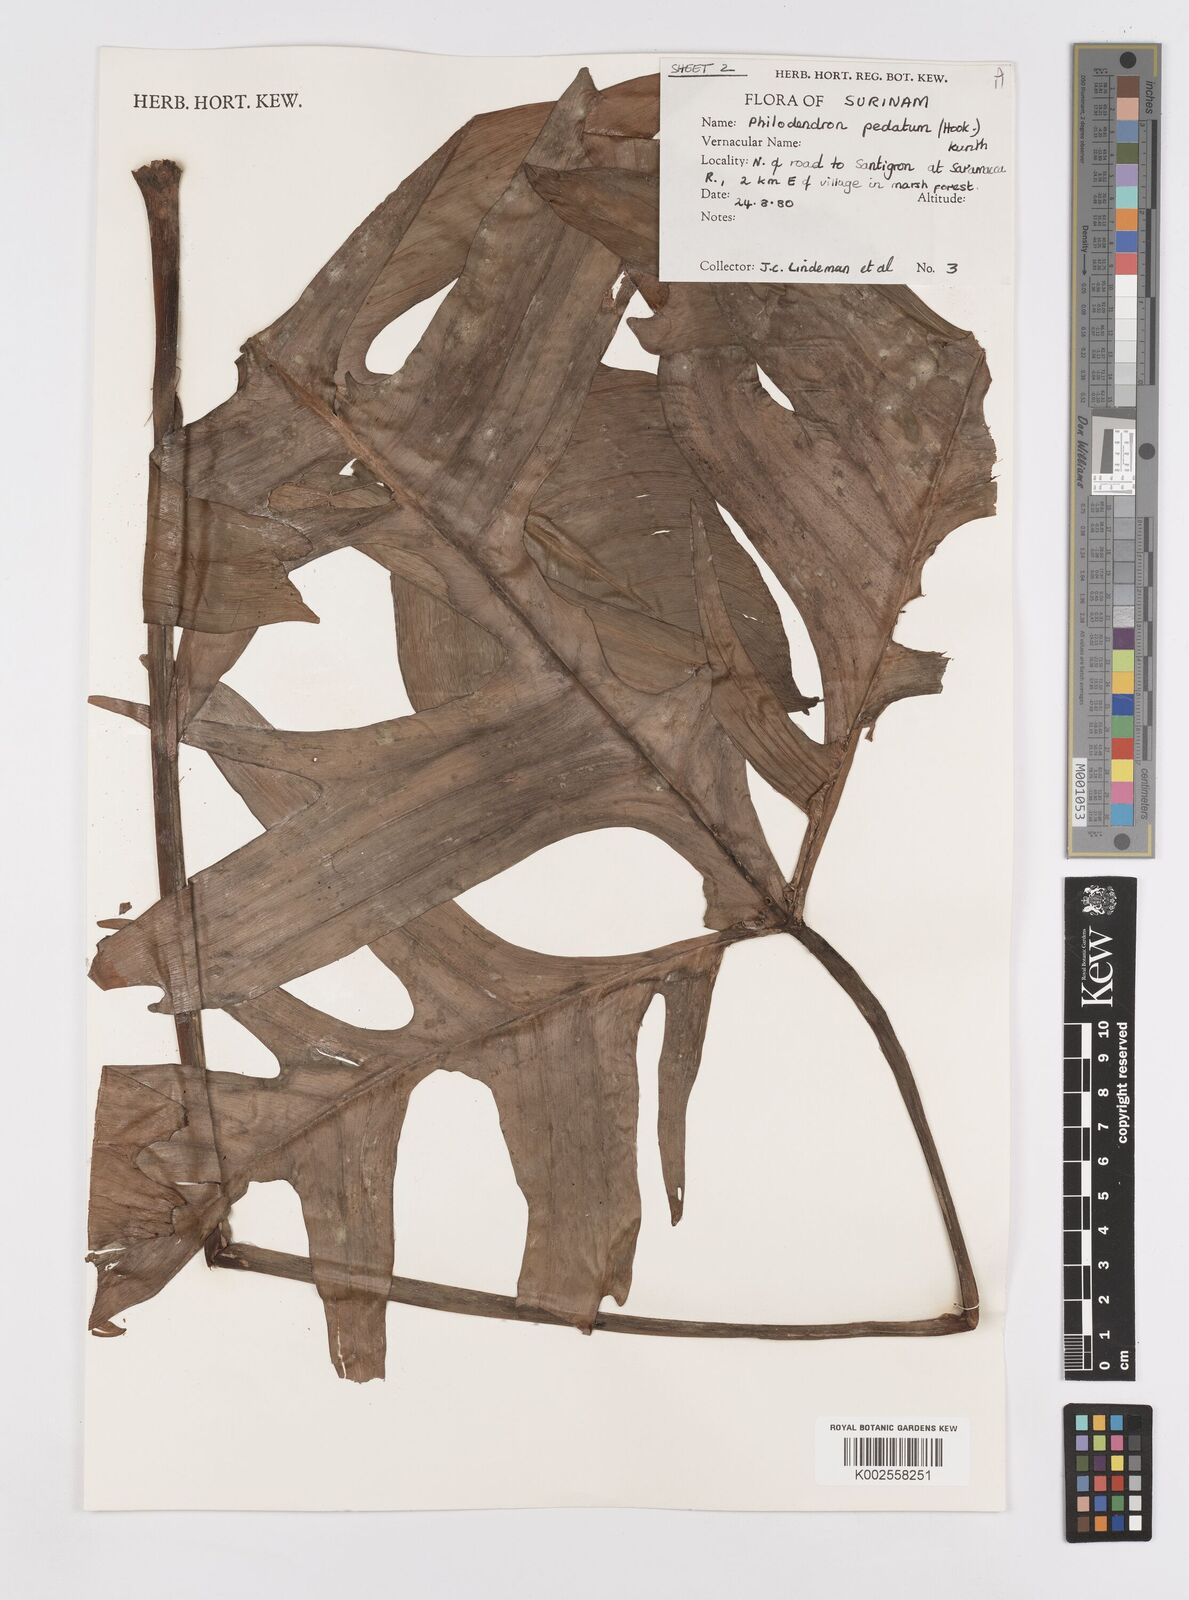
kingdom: Plantae
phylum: Tracheophyta
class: Liliopsida
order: Alismatales
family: Araceae
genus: Philodendron
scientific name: Philodendron pedatum
